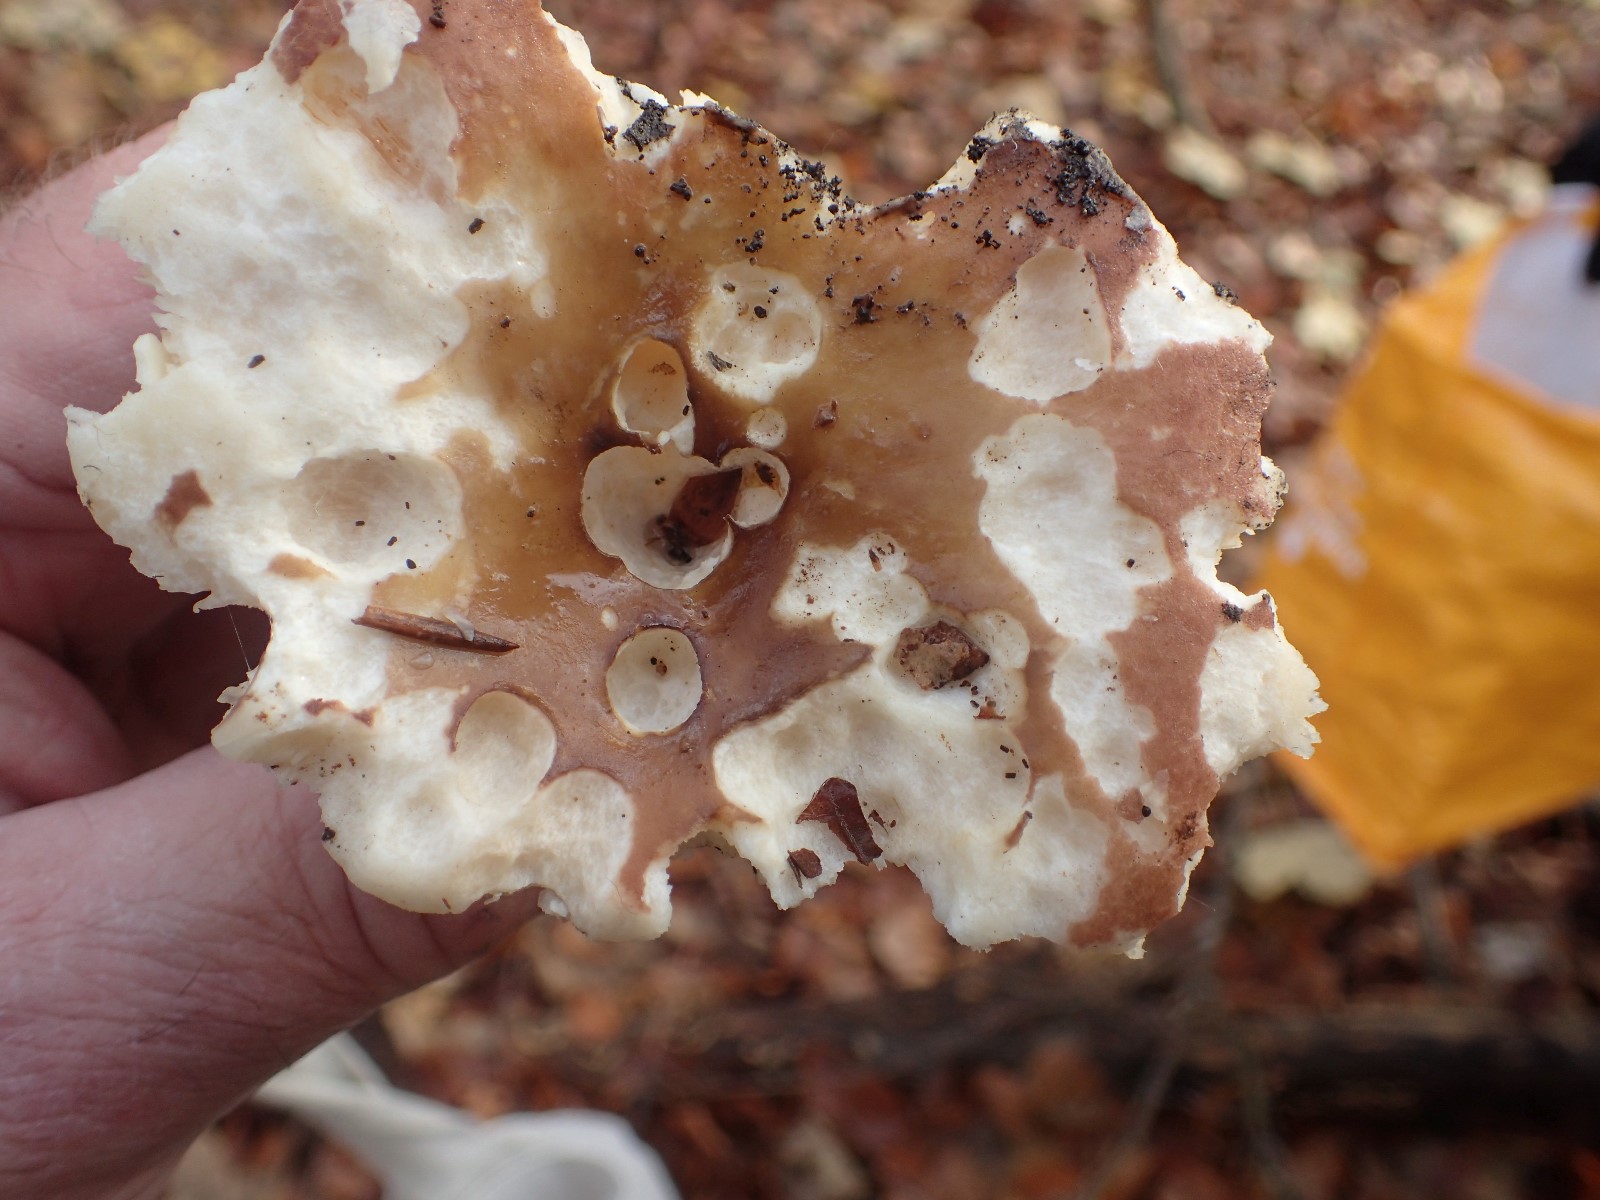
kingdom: Fungi
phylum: Basidiomycota
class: Agaricomycetes
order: Russulales
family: Russulaceae
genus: Russula
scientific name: Russula
